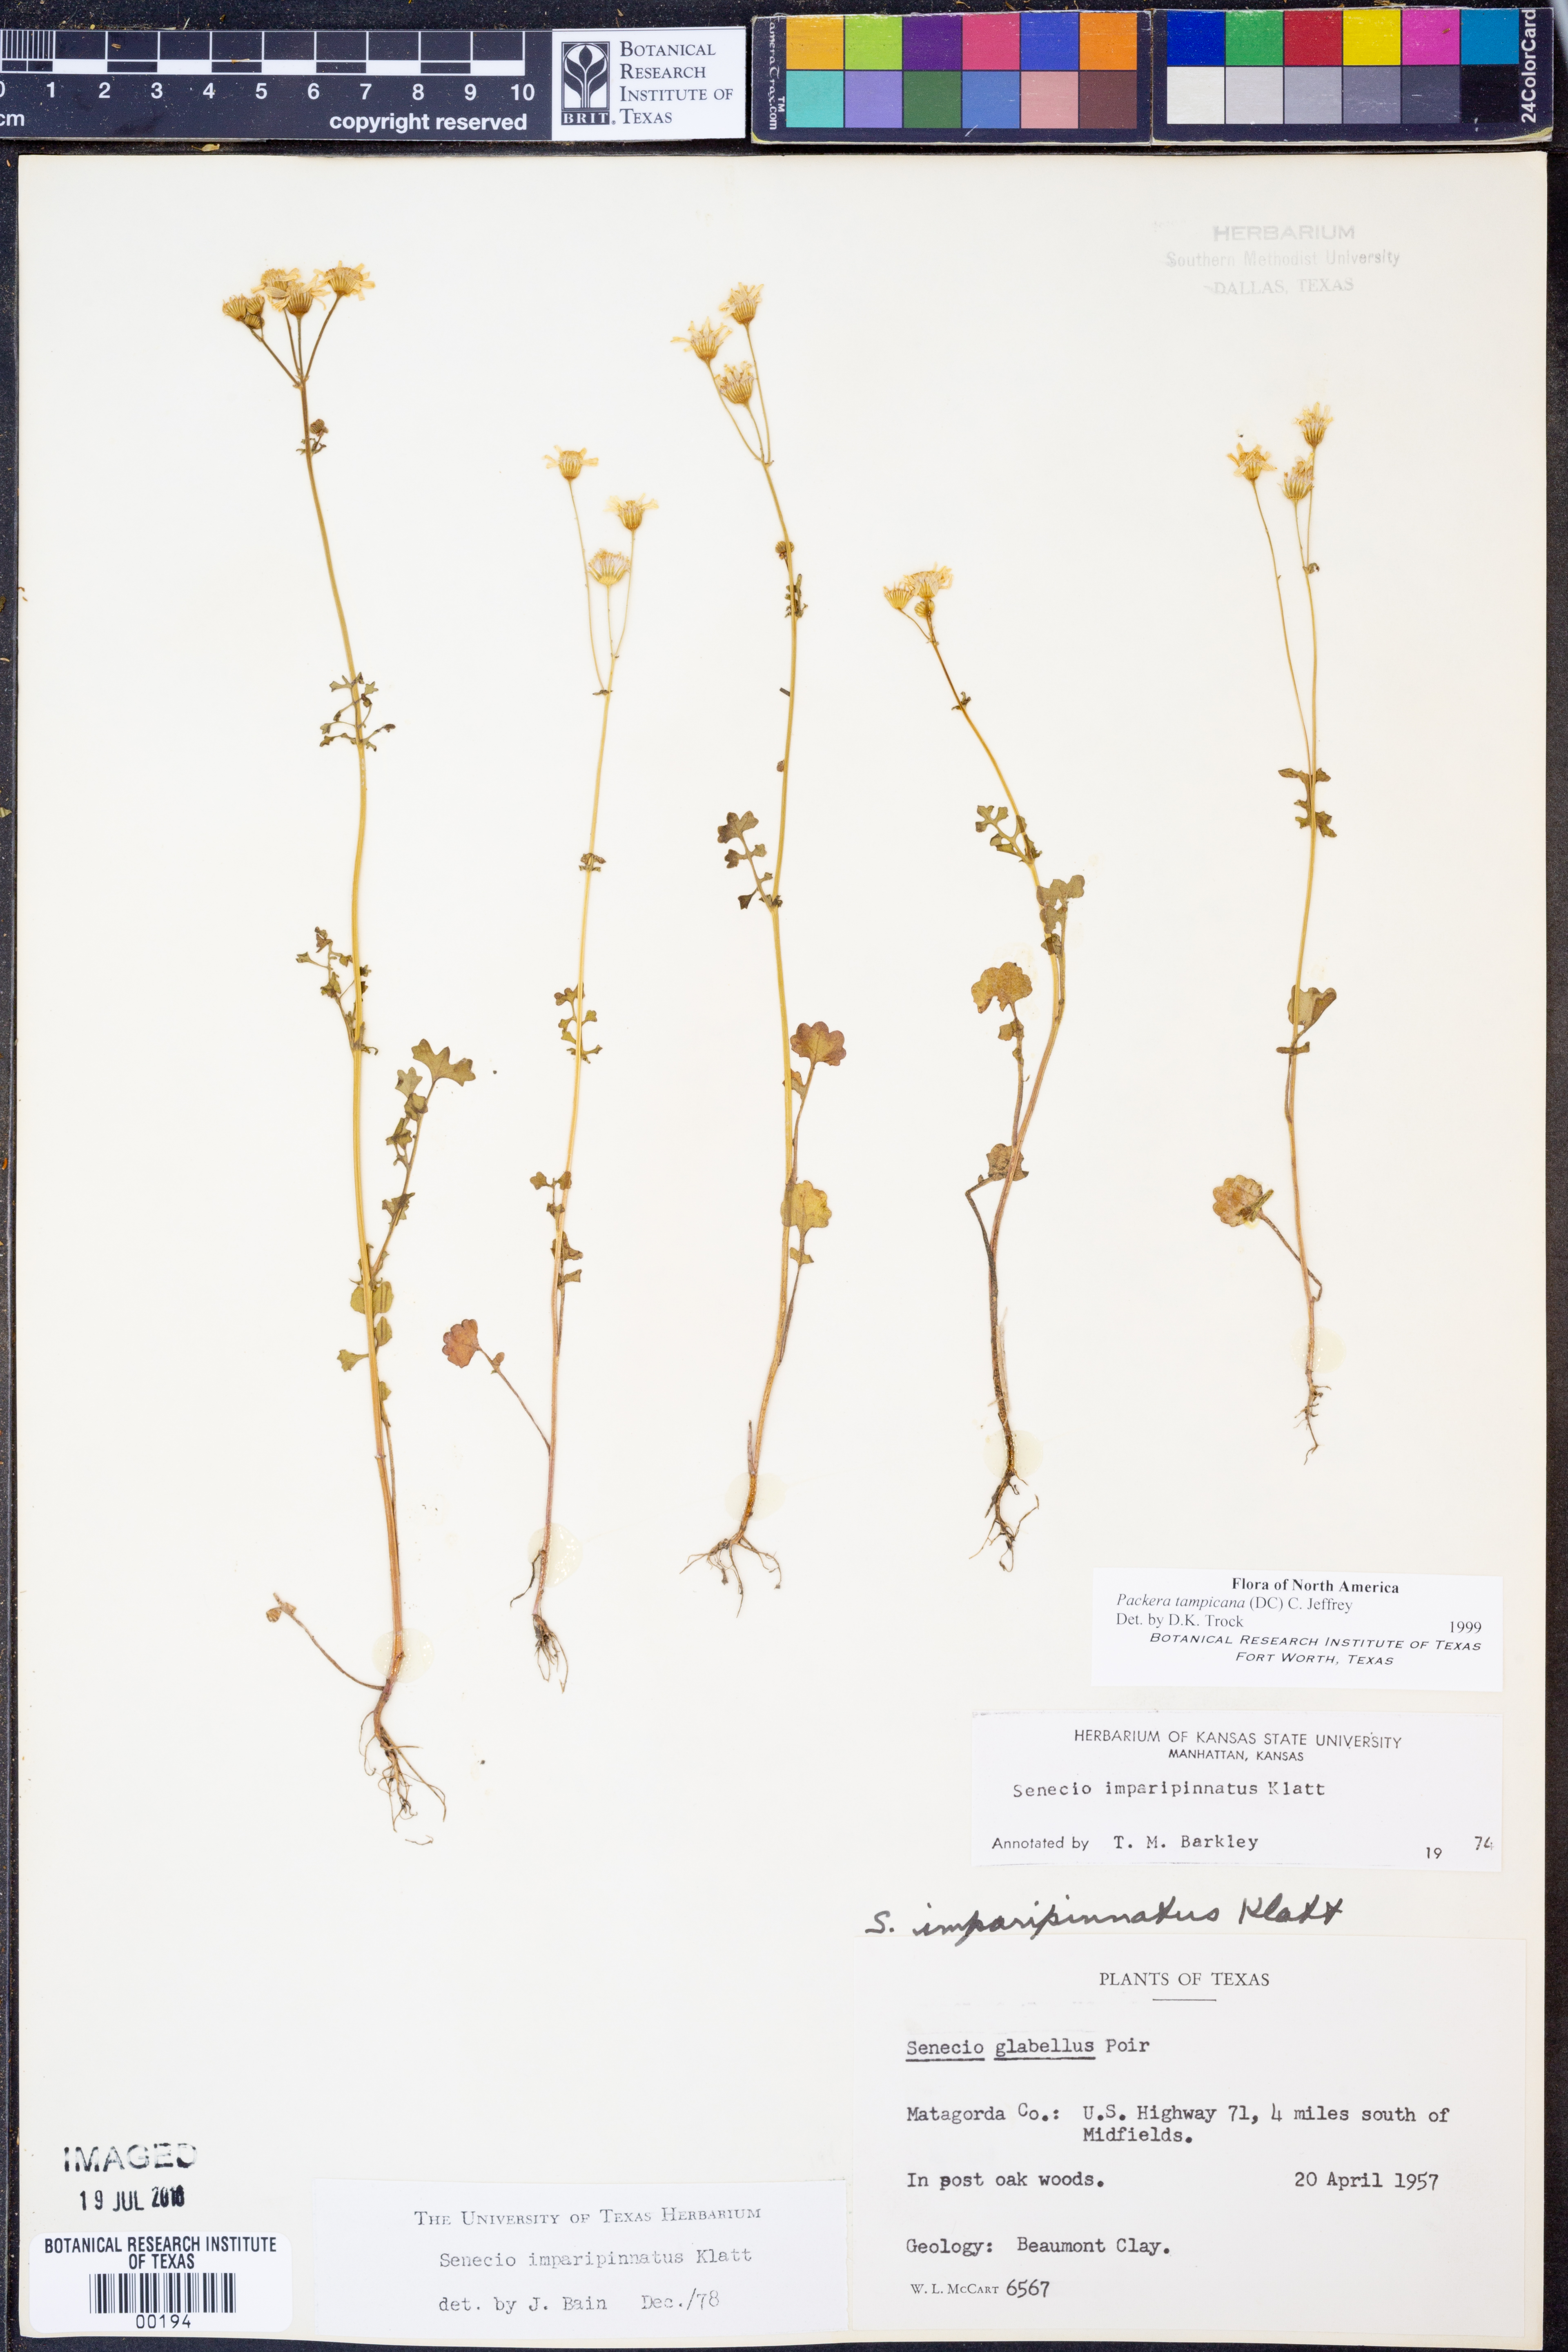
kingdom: Plantae
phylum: Tracheophyta
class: Magnoliopsida
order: Asterales
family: Asteraceae
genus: Packera
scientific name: Packera tampicana
